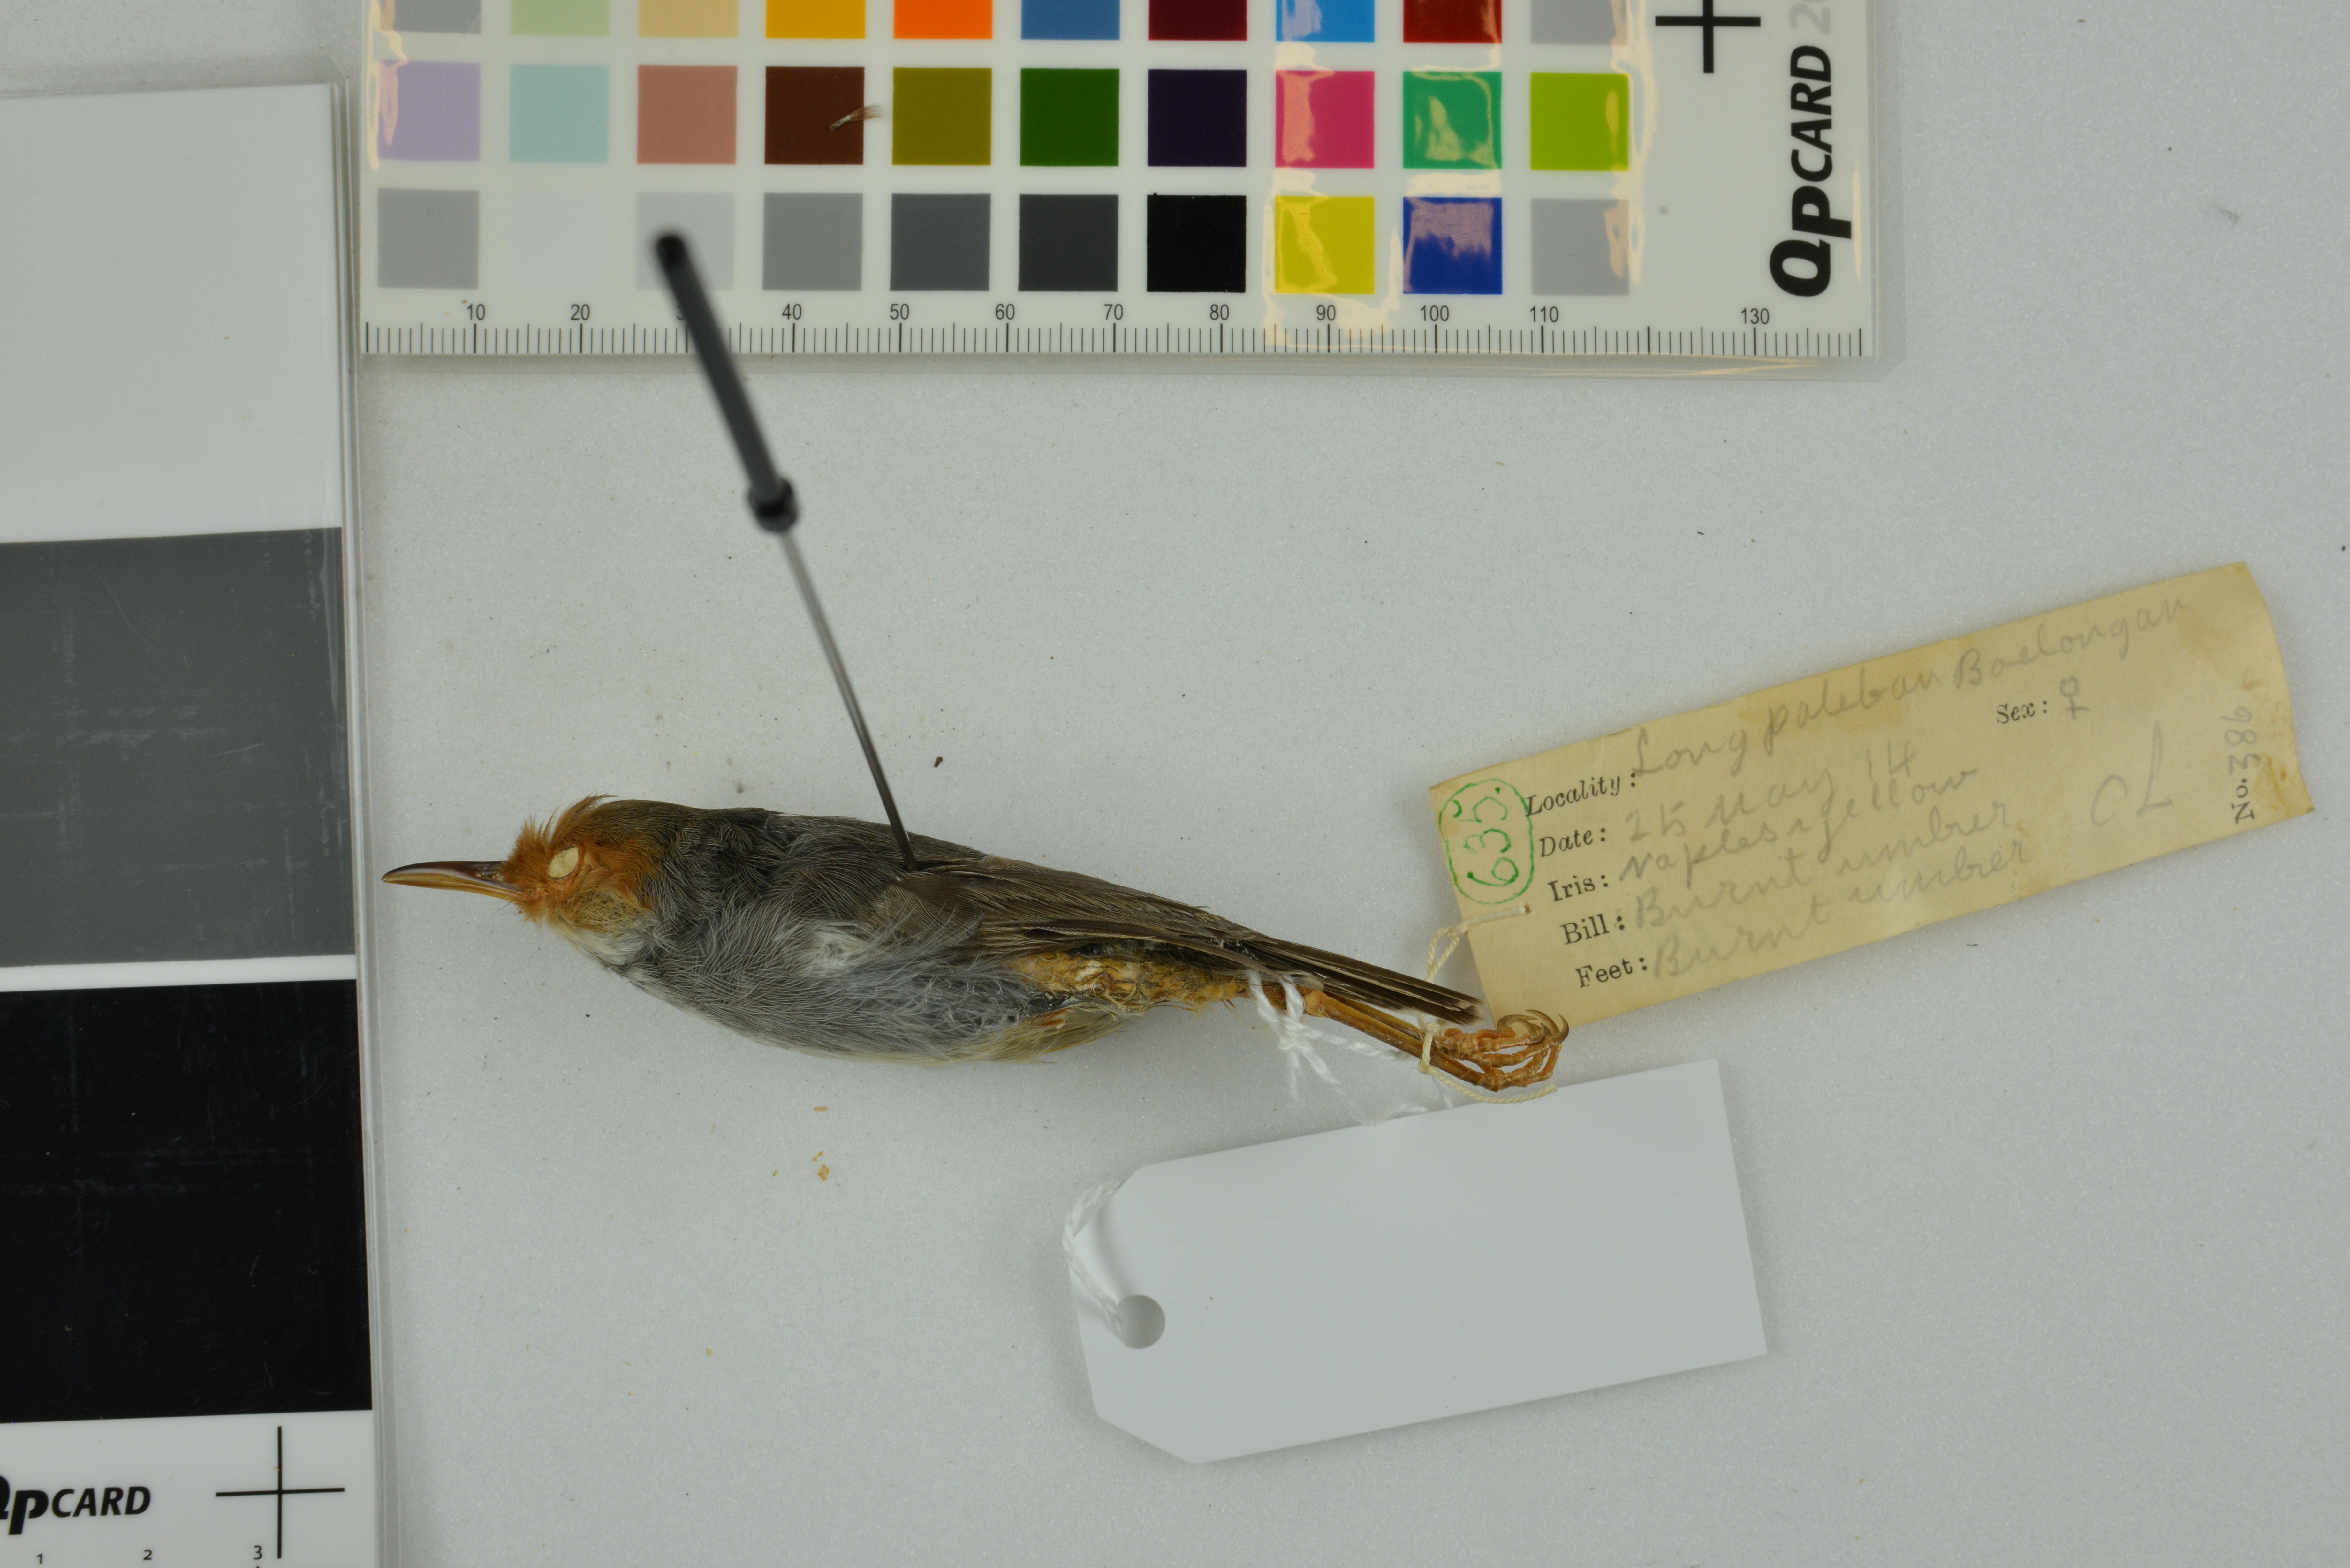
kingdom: Animalia
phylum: Chordata
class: Aves
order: Passeriformes
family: Cisticolidae
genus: Orthotomus
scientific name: Orthotomus ruficeps
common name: Ashy tailorbird
